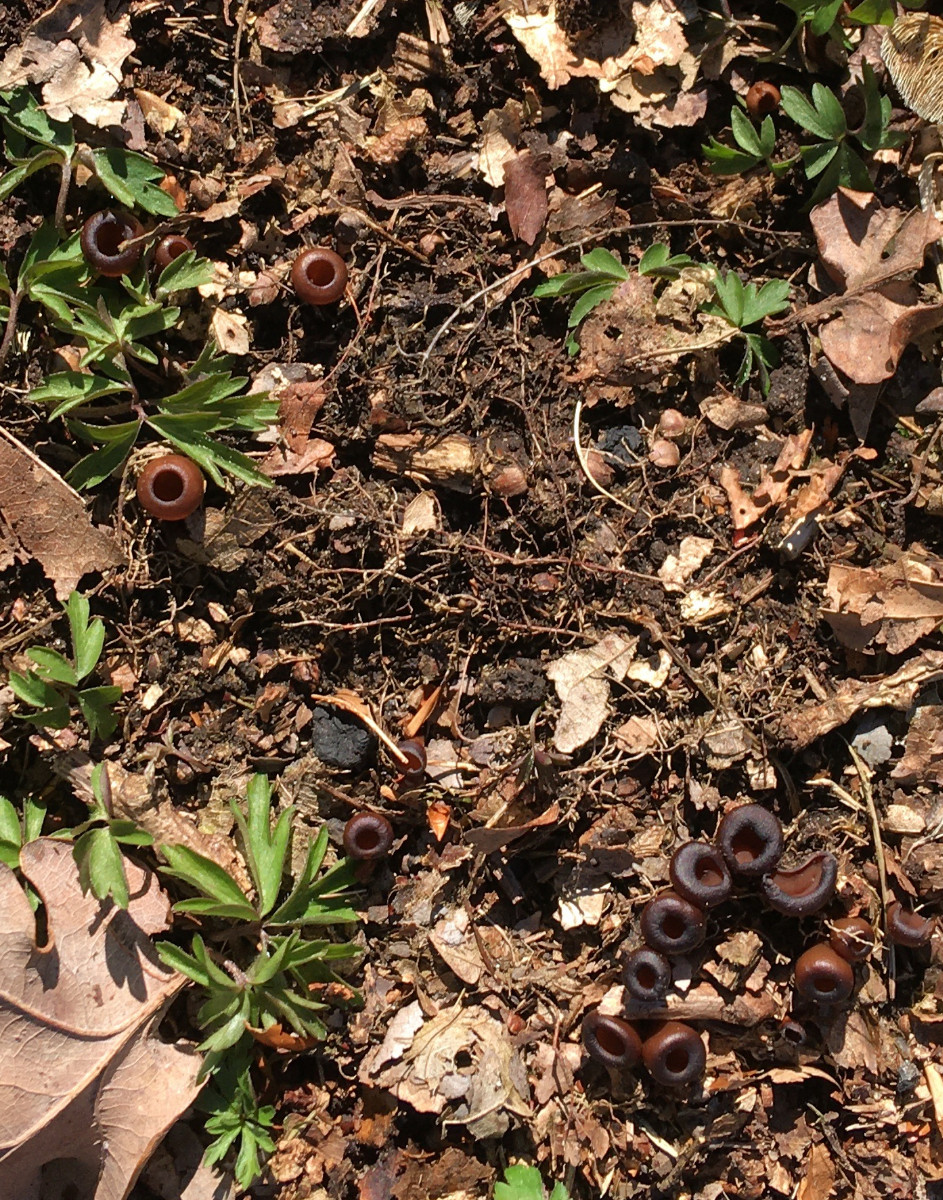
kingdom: Fungi
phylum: Ascomycota
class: Leotiomycetes
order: Helotiales
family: Sclerotiniaceae
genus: Dumontinia
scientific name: Dumontinia tuberosa
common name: anemone-knoldskive
